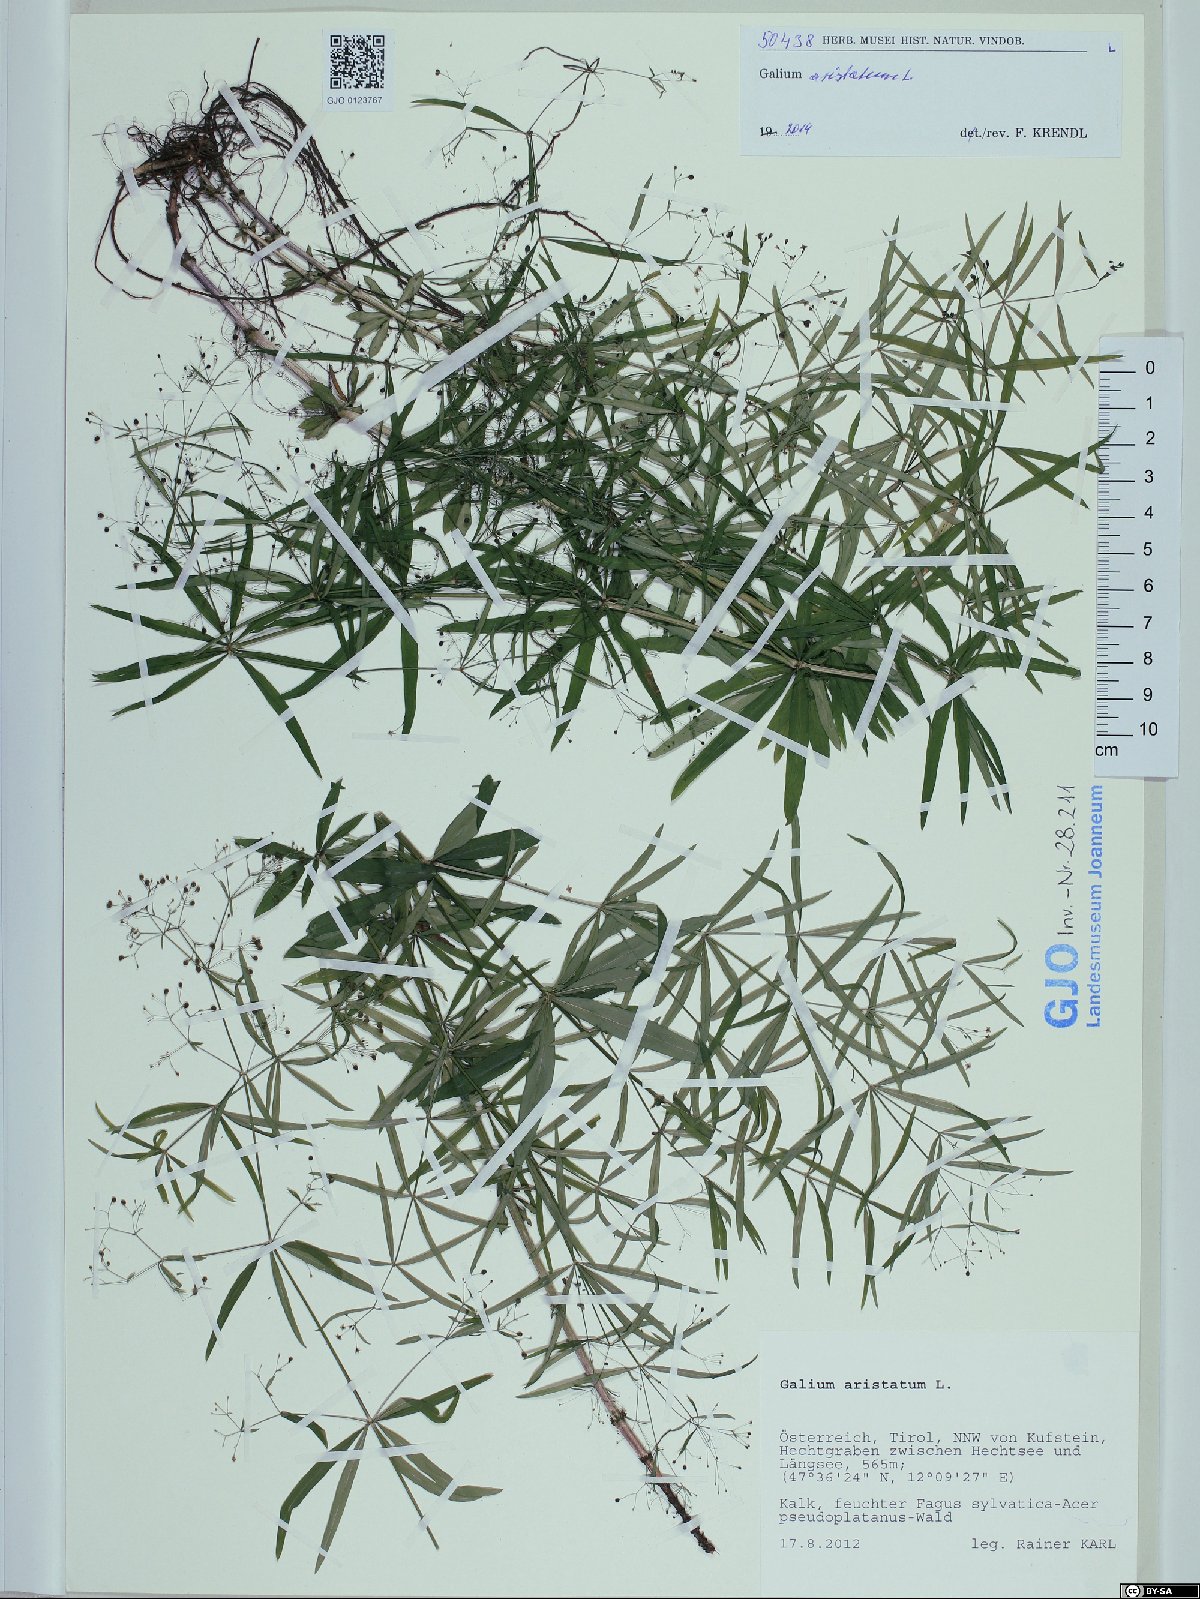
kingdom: Plantae
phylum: Tracheophyta
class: Magnoliopsida
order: Gentianales
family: Rubiaceae
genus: Galium
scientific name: Galium aristatum
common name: Awned bedstraw
